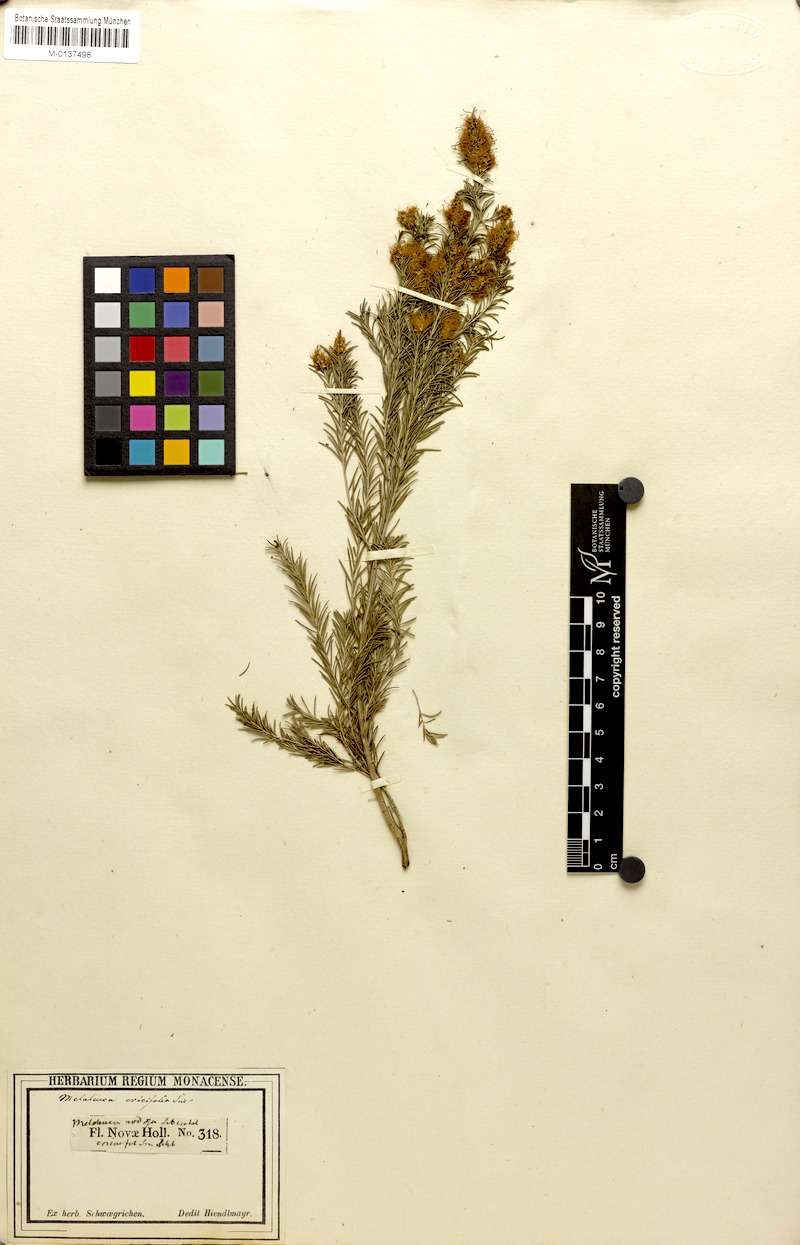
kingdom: Plantae
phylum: Tracheophyta
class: Magnoliopsida
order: Myrtales
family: Myrtaceae
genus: Melaleuca
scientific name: Melaleuca ericifolia
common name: Paperbark teatree
